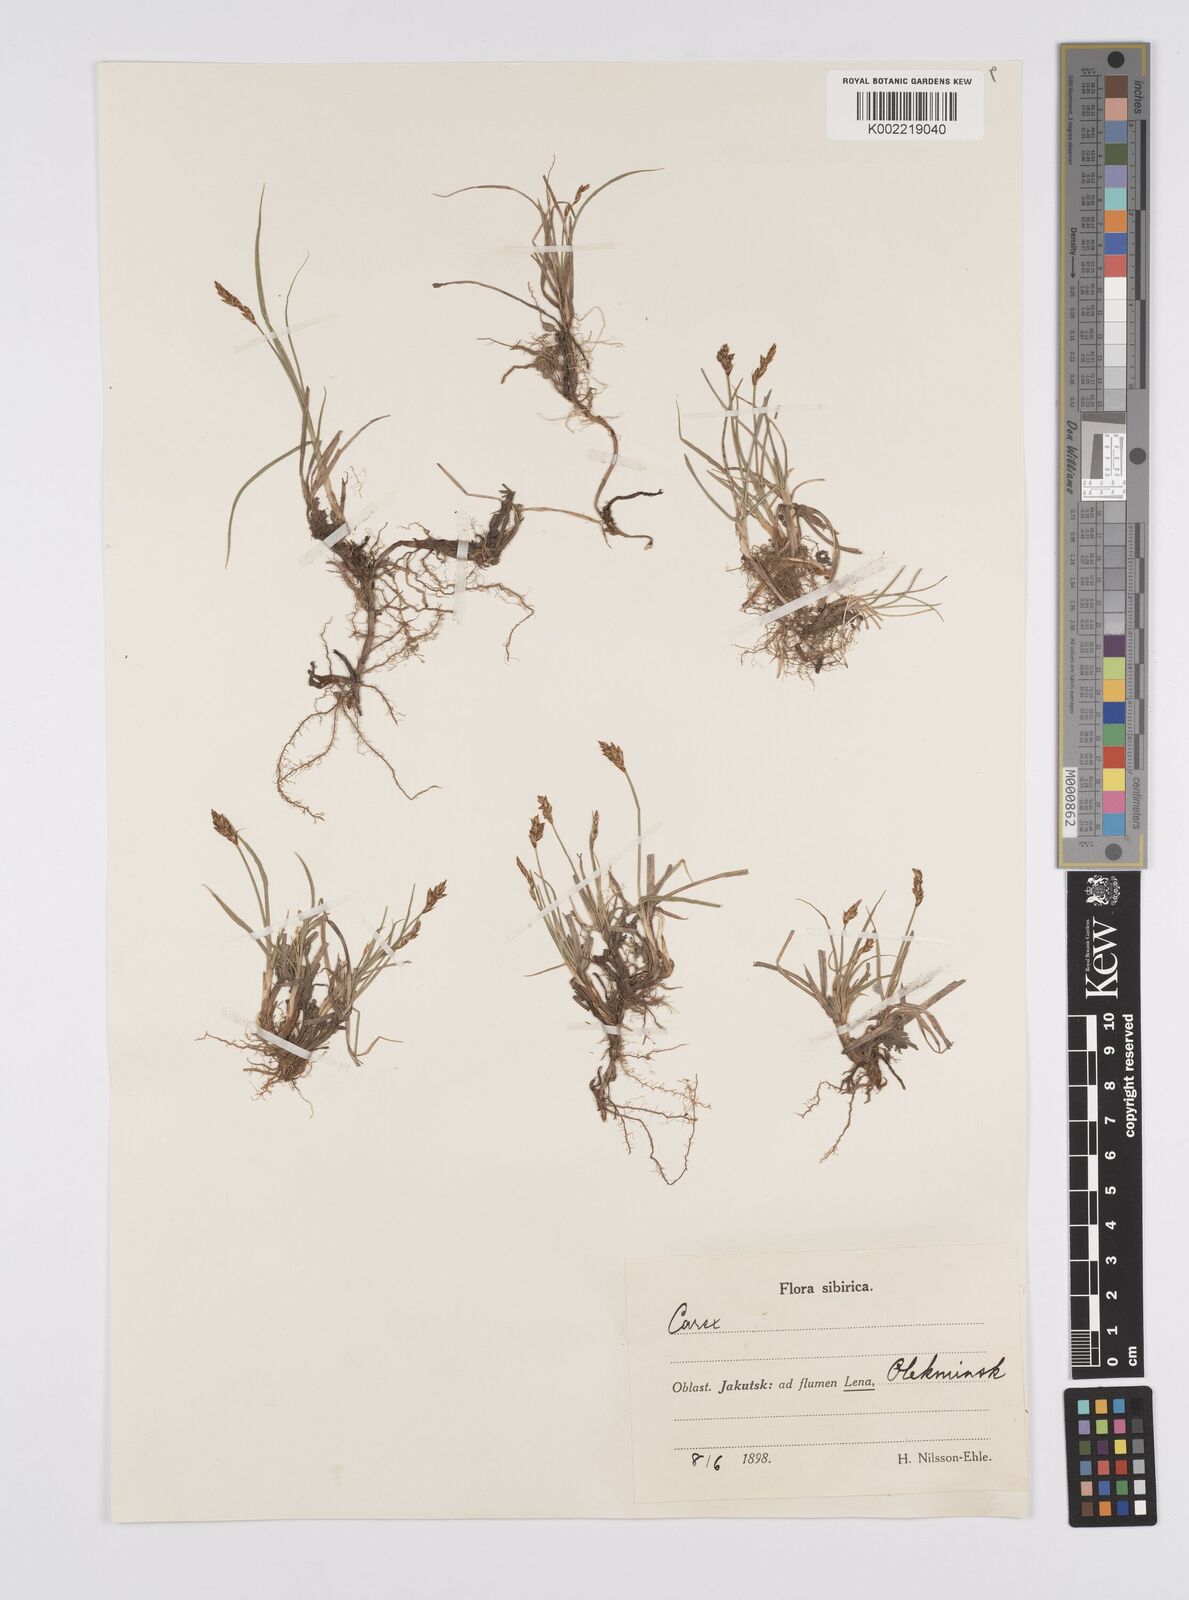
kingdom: Plantae
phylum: Tracheophyta
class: Liliopsida
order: Poales
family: Cyperaceae
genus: Carex
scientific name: Carex yamatsutana
